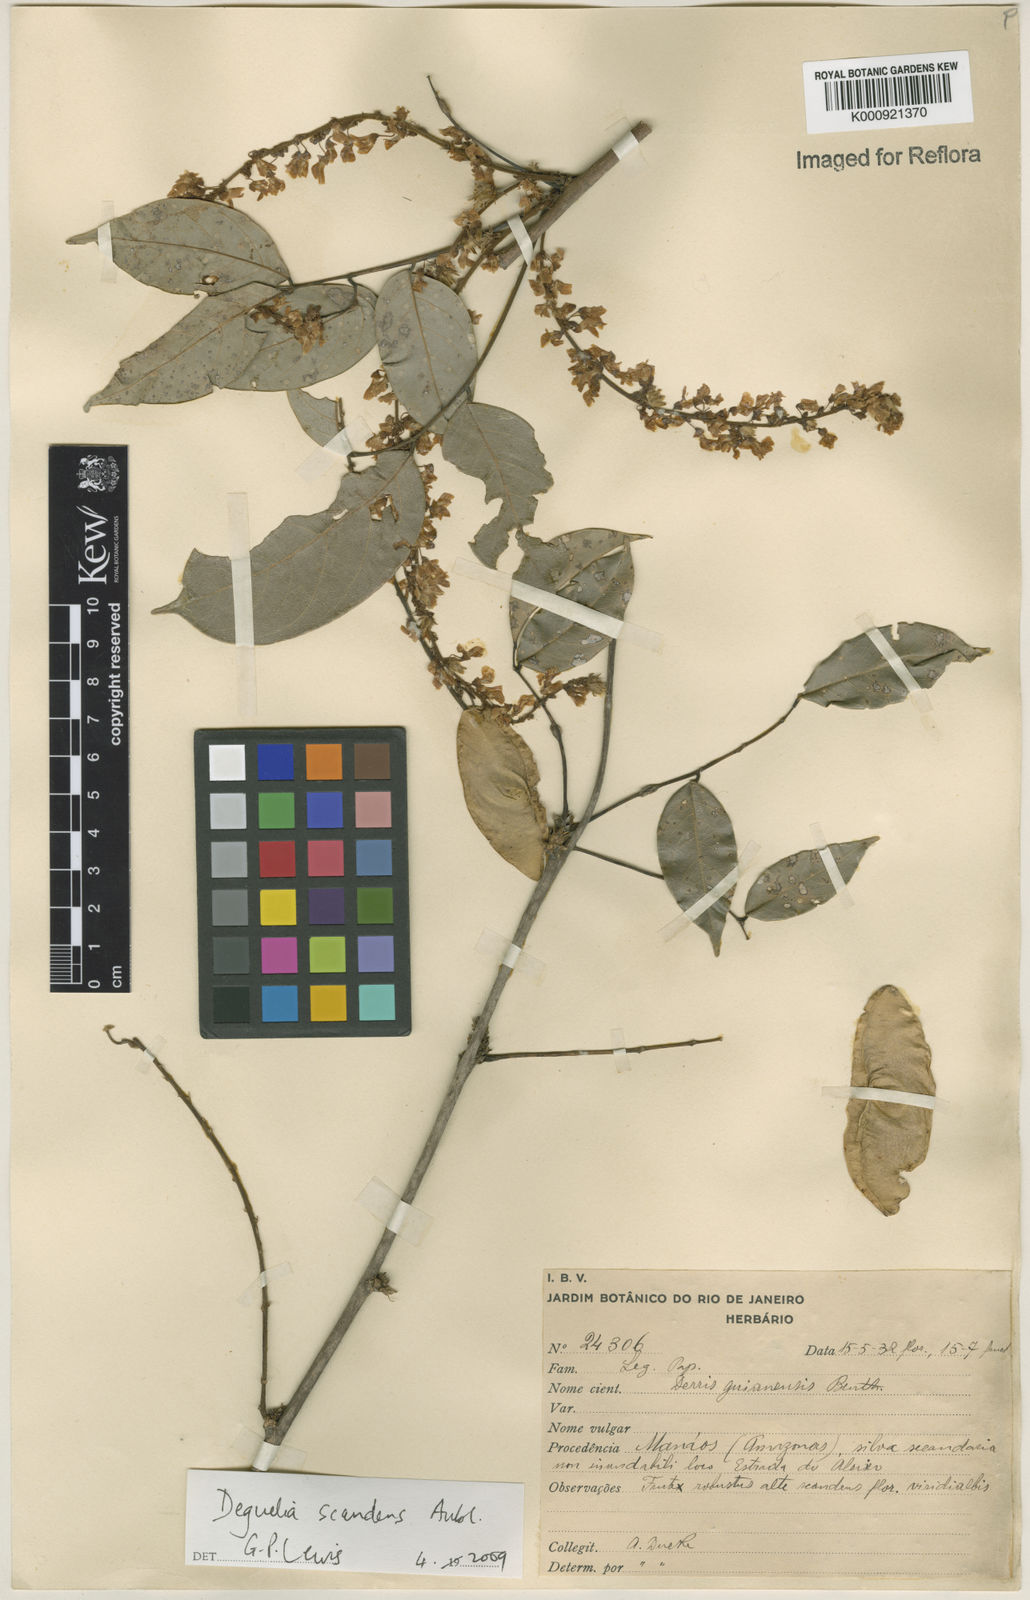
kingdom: Plantae
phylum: Tracheophyta
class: Magnoliopsida
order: Fabales
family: Fabaceae
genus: Deguelia
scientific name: Deguelia scandens
